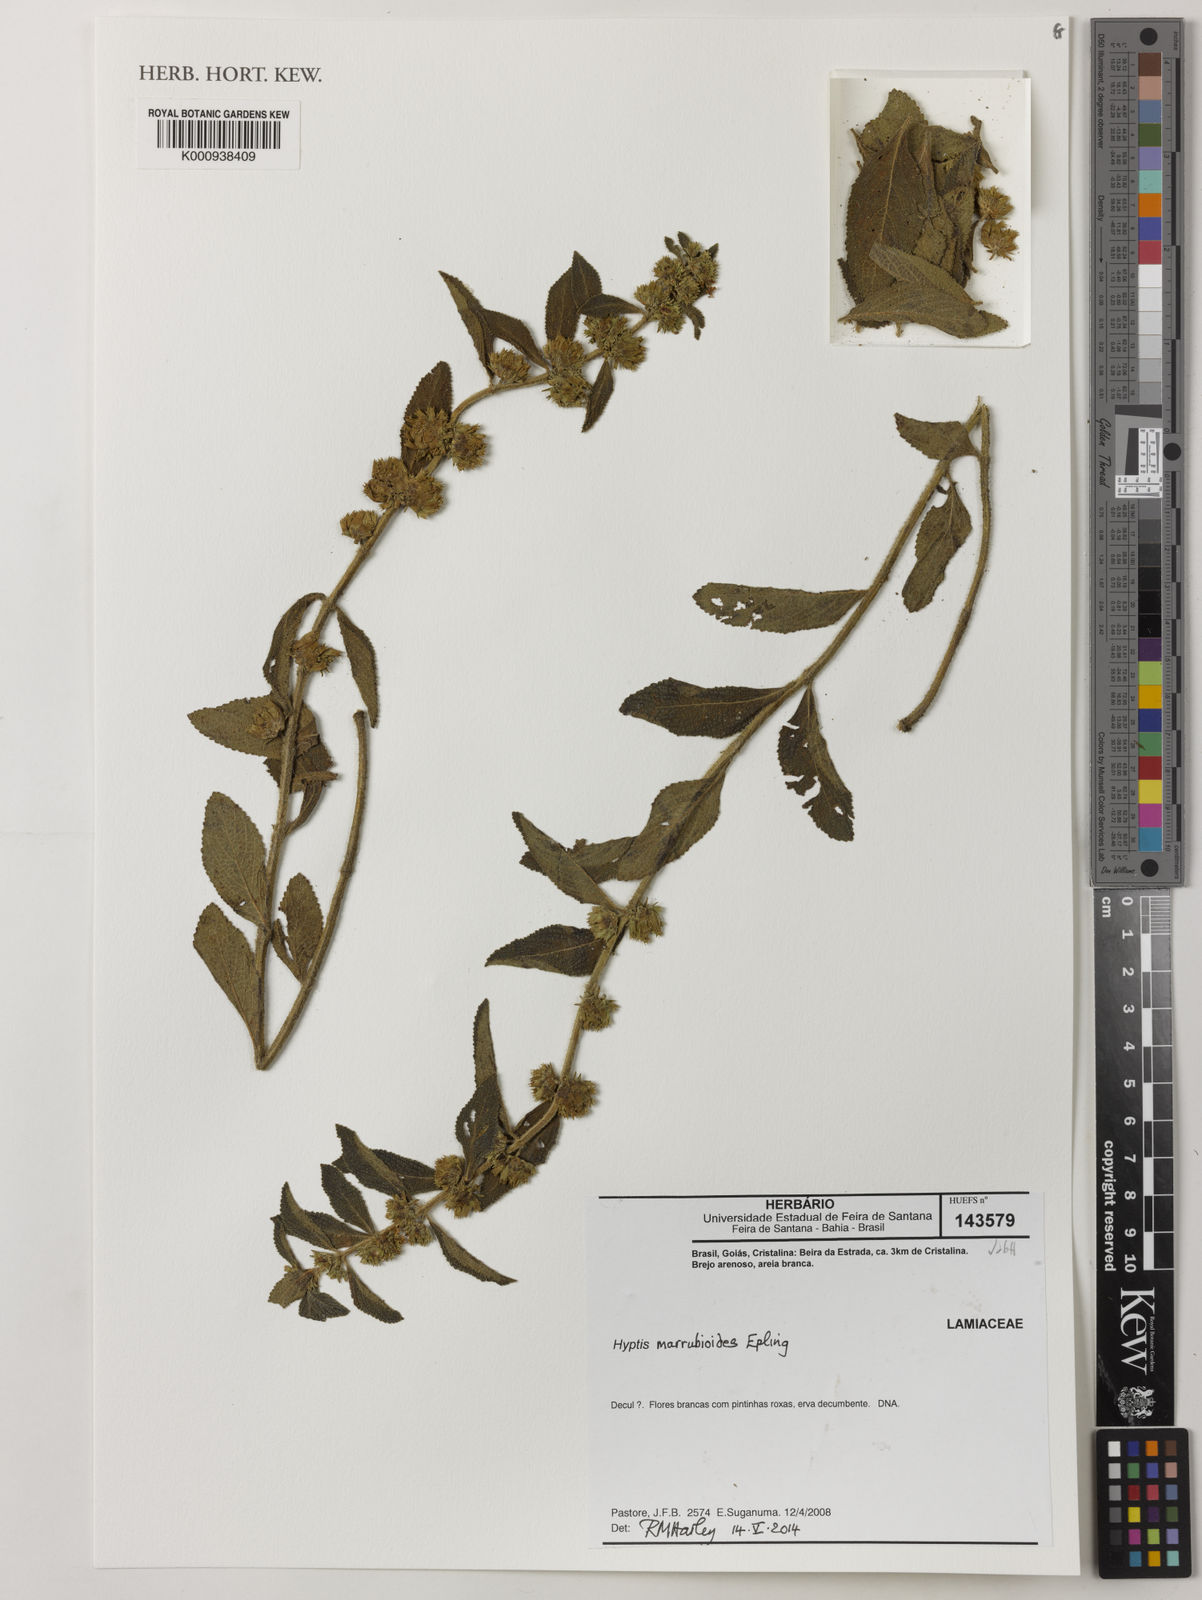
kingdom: Plantae
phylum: Tracheophyta
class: Magnoliopsida
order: Lamiales
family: Lamiaceae
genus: Hyptis
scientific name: Hyptis marrubioides
